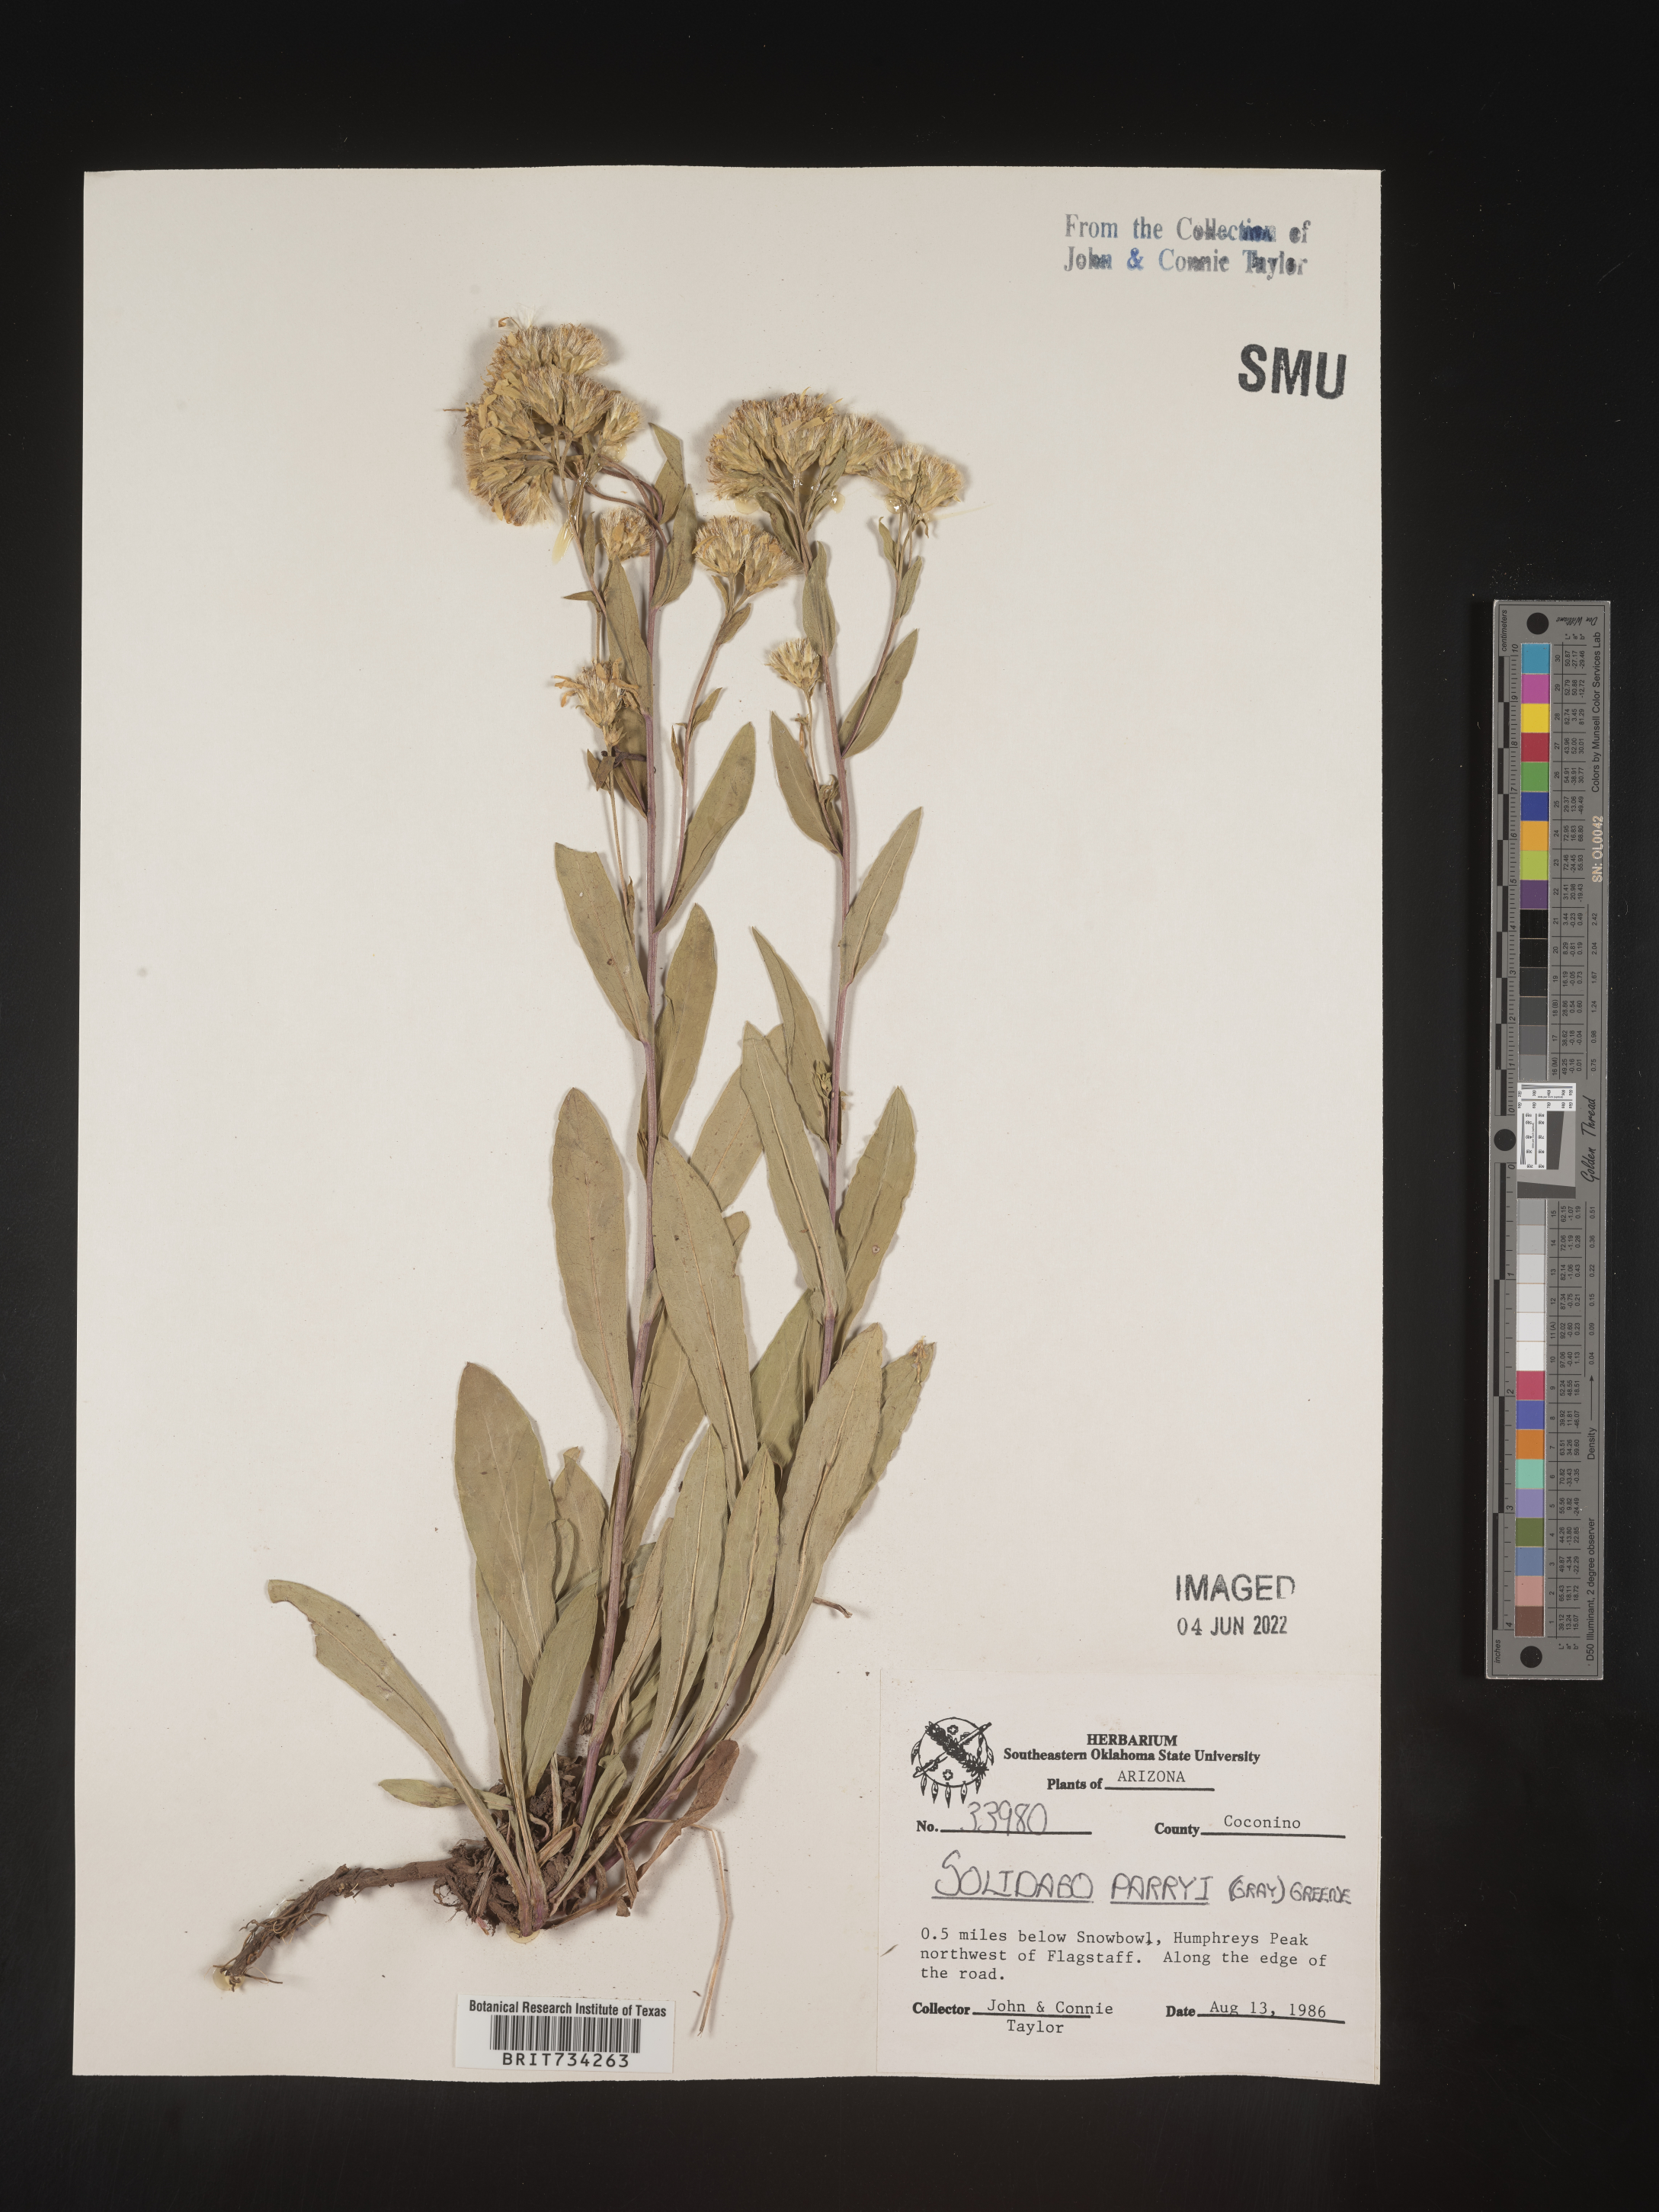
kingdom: Plantae
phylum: Tracheophyta
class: Magnoliopsida
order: Asterales
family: Asteraceae
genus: Oreochrysum
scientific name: Oreochrysum parryi
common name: Parry's goldenweed
